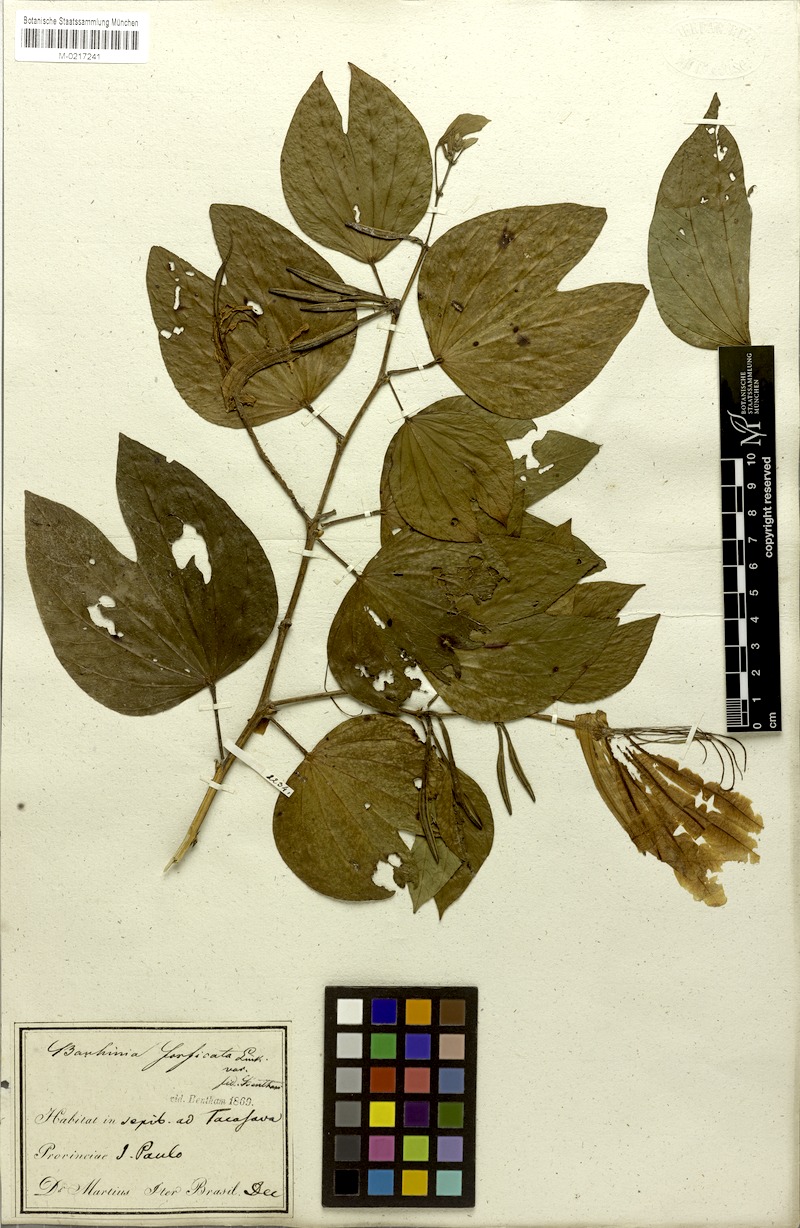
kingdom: Plantae
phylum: Tracheophyta
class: Magnoliopsida
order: Fabales
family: Fabaceae
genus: Bauhinia
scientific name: Bauhinia forficata
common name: Orchid tree
